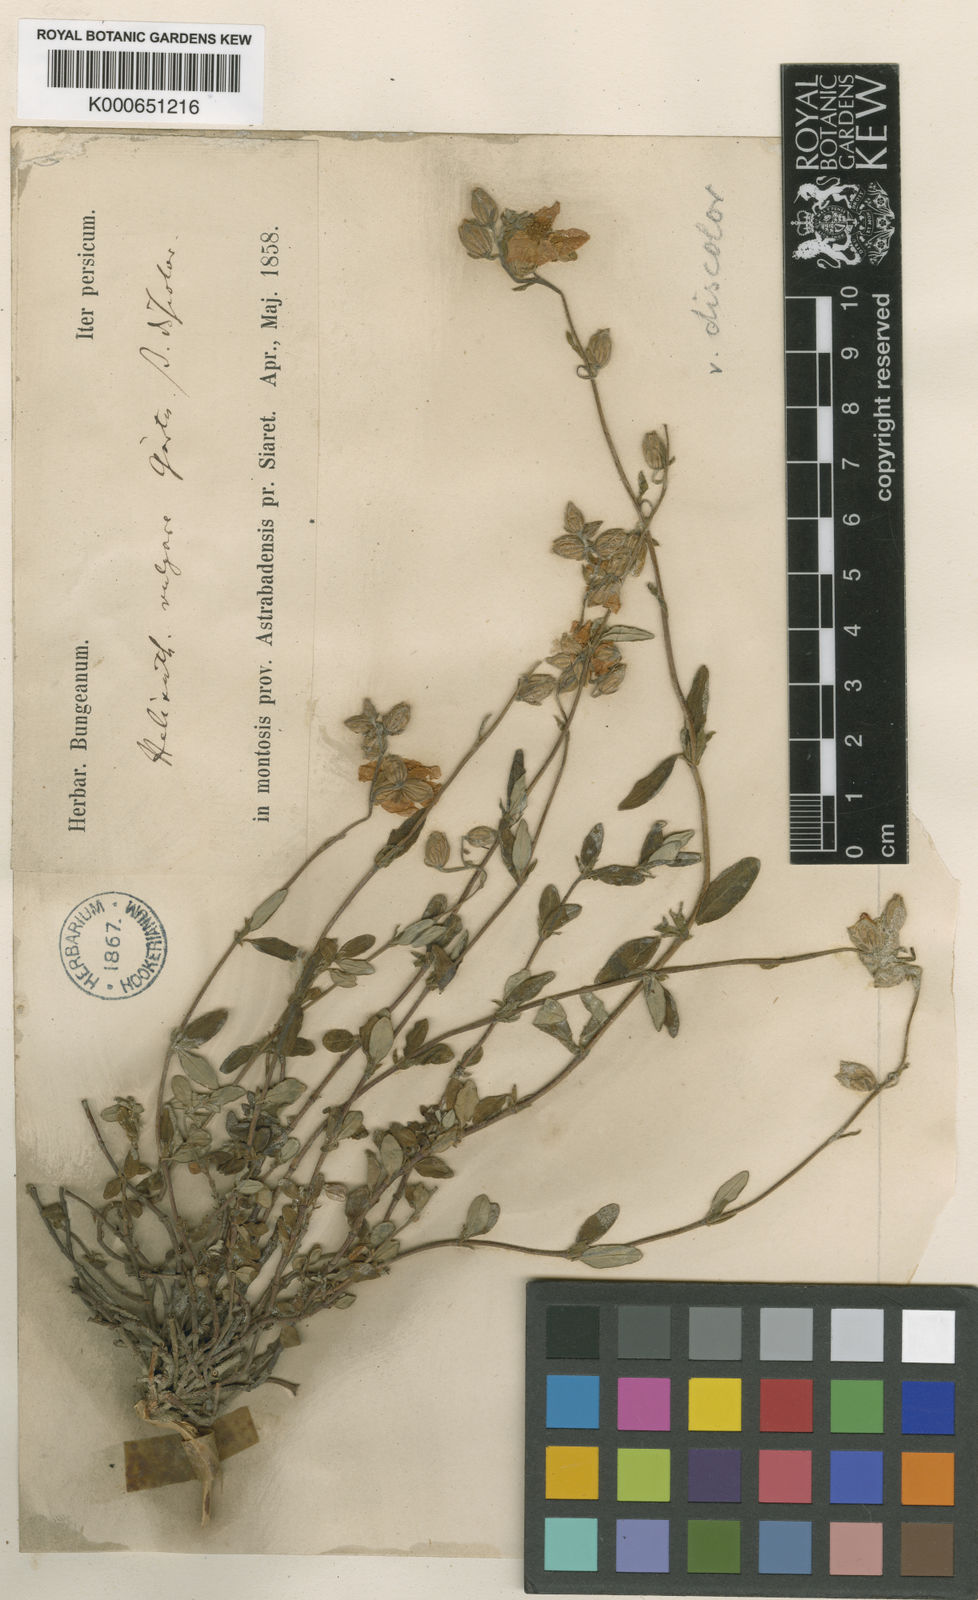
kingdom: Plantae
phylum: Tracheophyta
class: Magnoliopsida
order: Malvales
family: Cistaceae
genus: Helianthemum
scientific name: Helianthemum nummularium
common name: Common rock-rose
